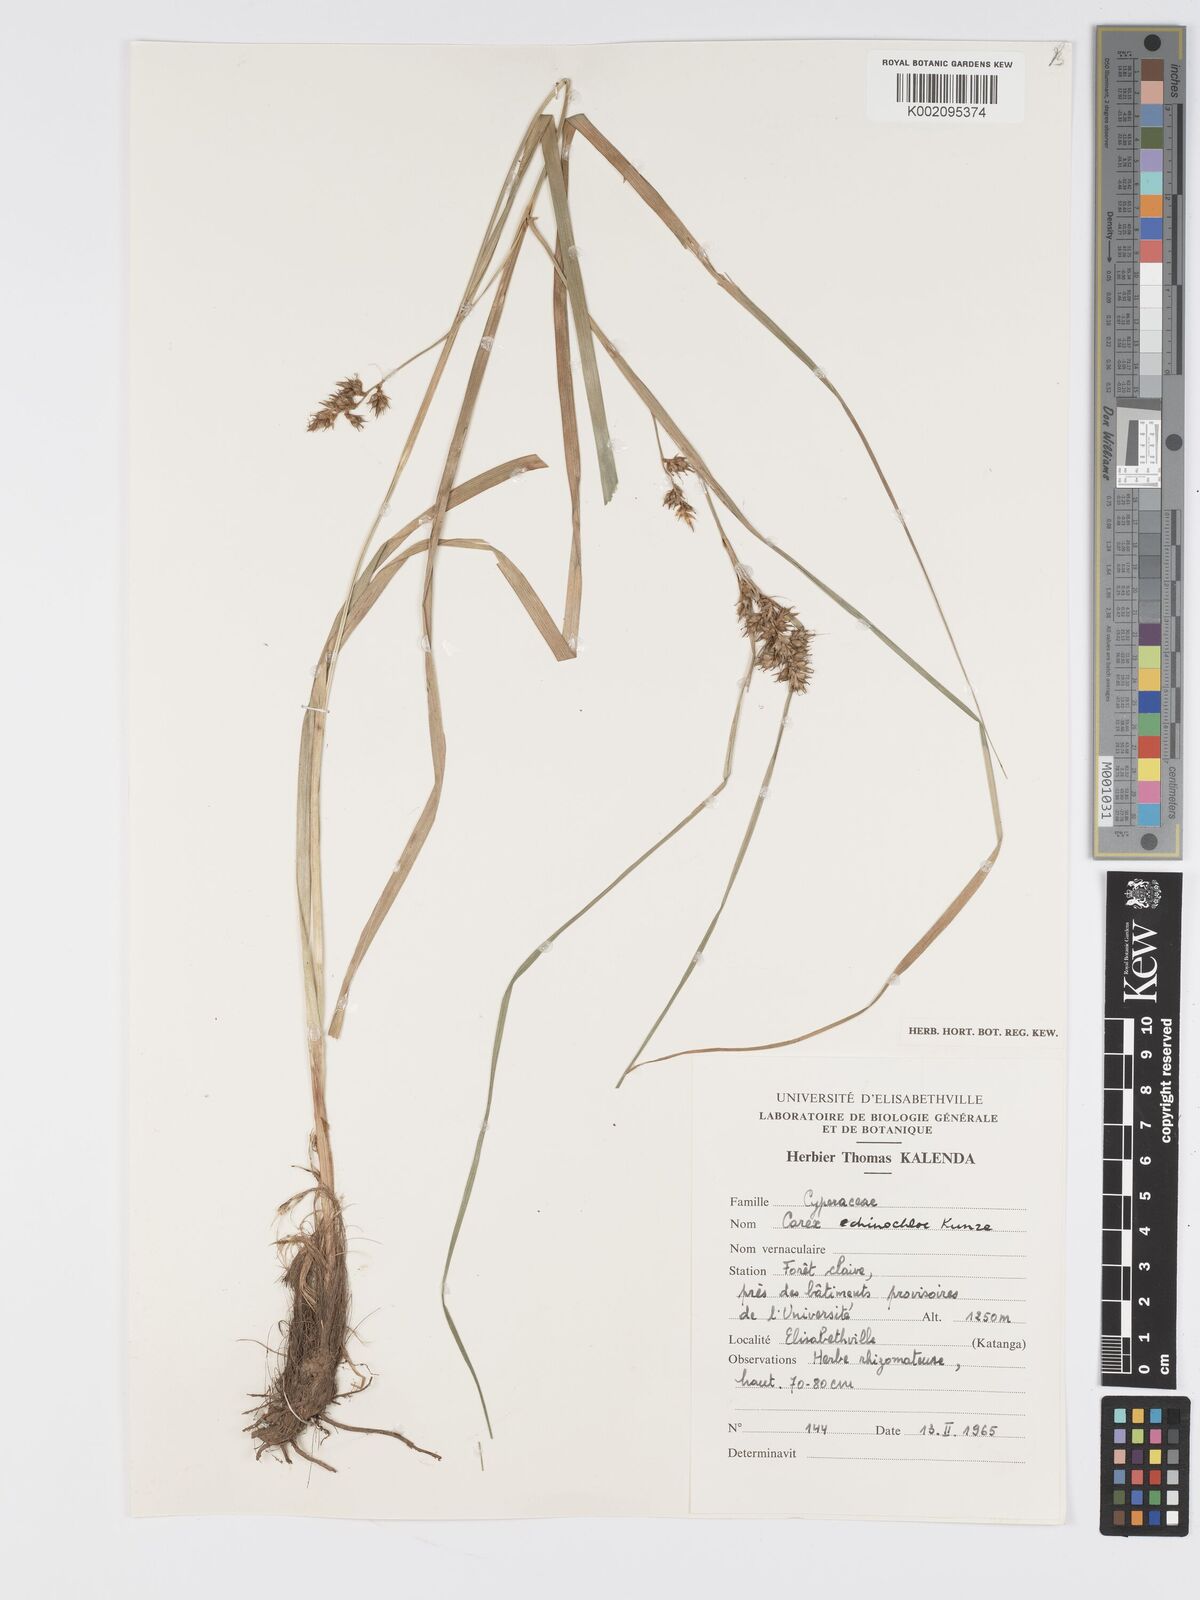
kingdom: Plantae
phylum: Tracheophyta
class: Liliopsida
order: Poales
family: Cyperaceae
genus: Carex
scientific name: Carex macrophyllidion
